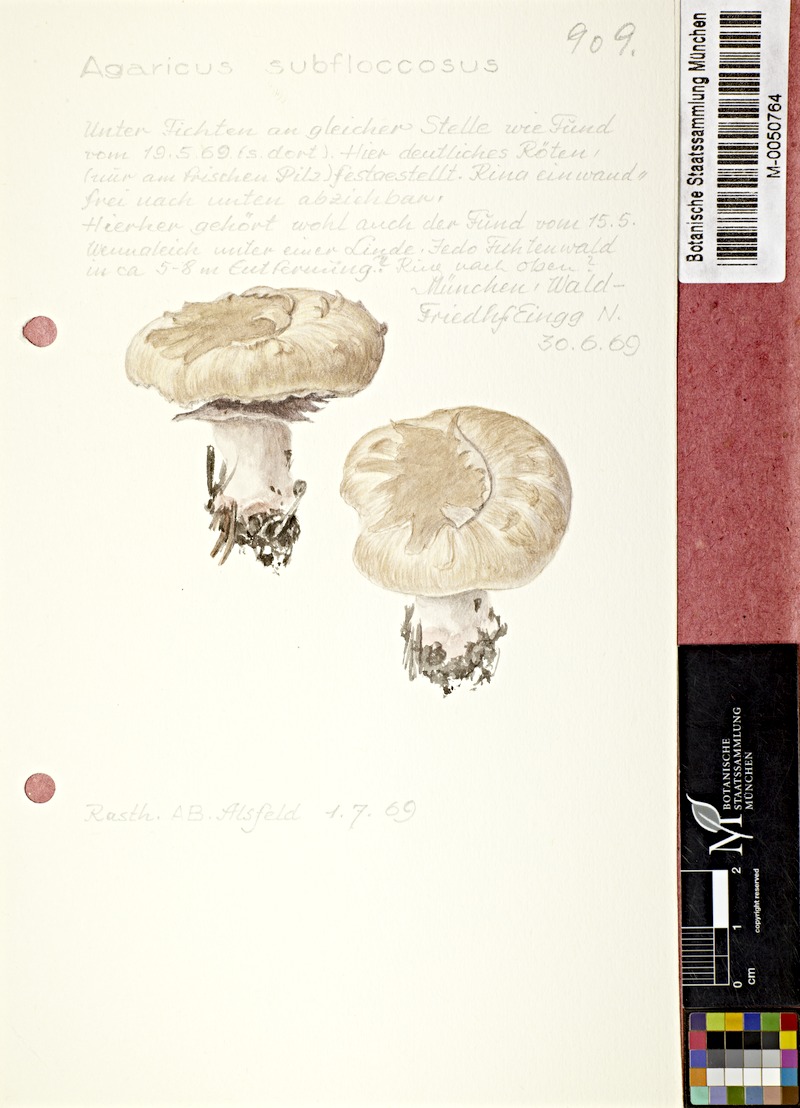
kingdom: Fungi
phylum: Basidiomycota
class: Agaricomycetes
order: Agaricales
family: Agaricaceae
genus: Agaricus
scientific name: Agaricus subfloccosus
